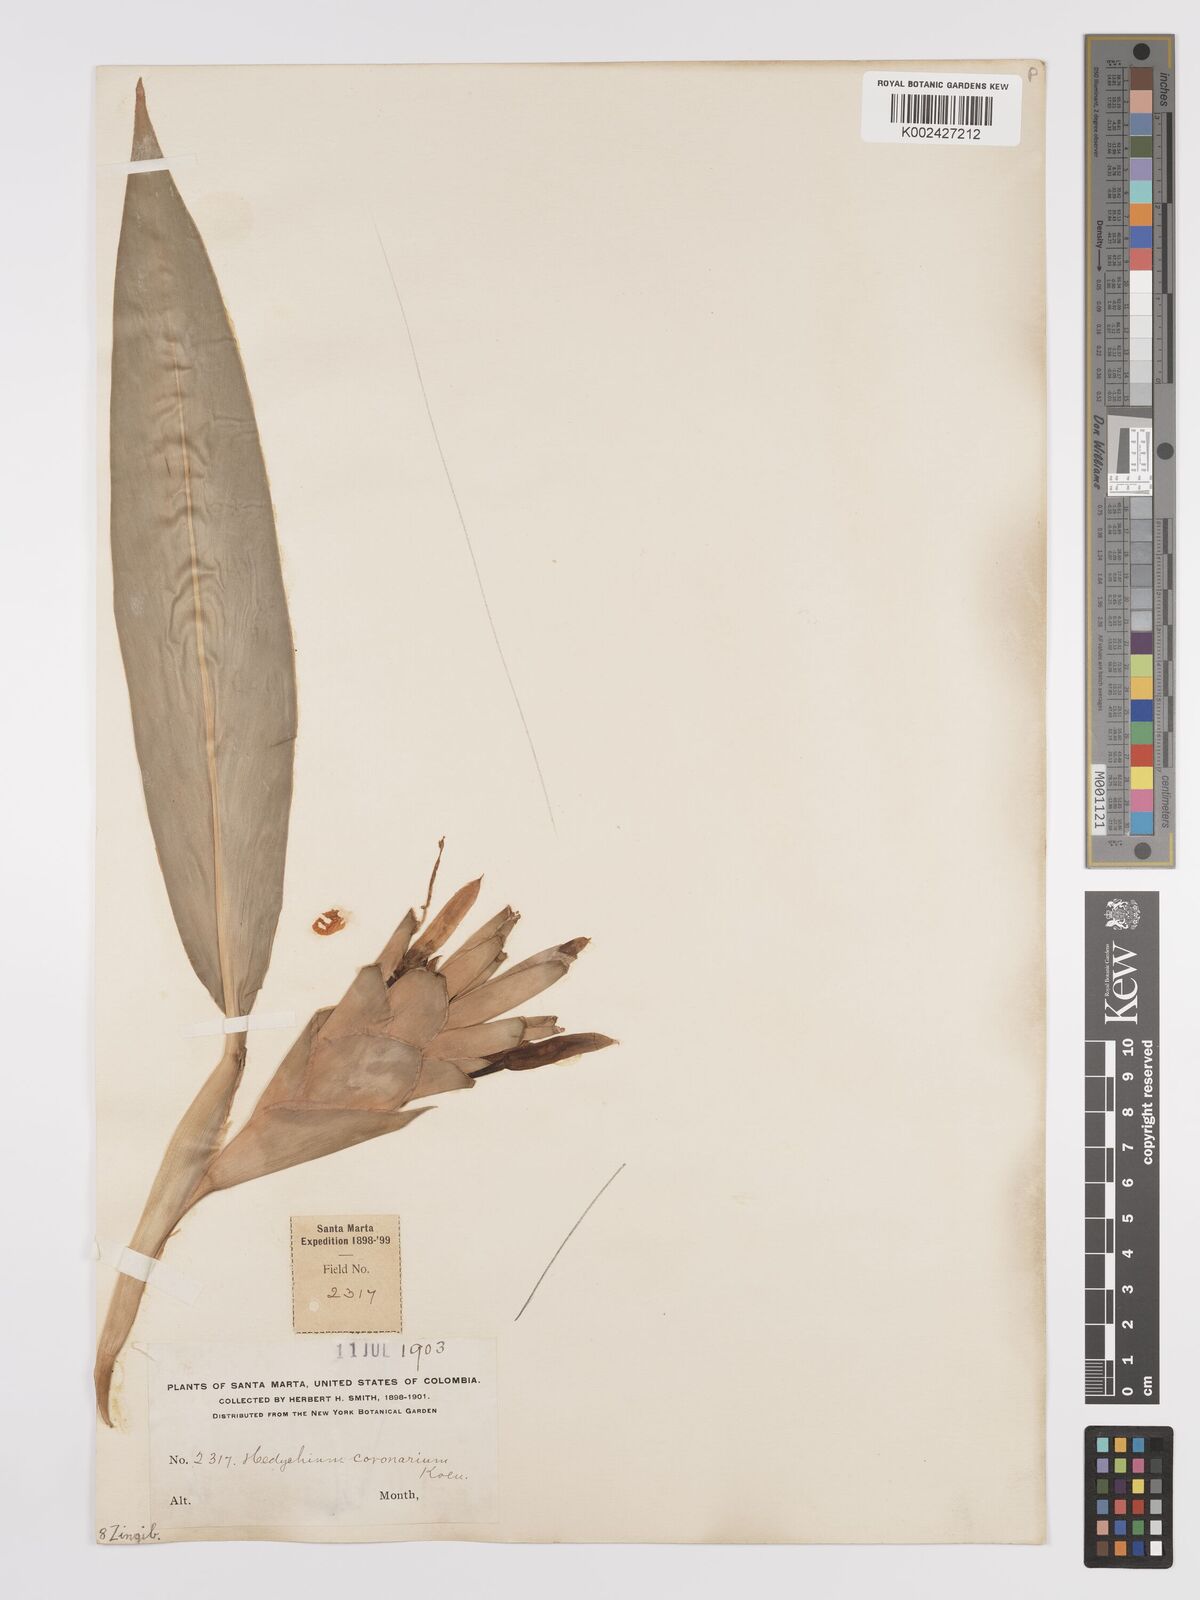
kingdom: Plantae
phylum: Tracheophyta
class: Liliopsida
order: Zingiberales
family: Zingiberaceae
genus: Hedychium
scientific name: Hedychium coronarium
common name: White garland-lily
